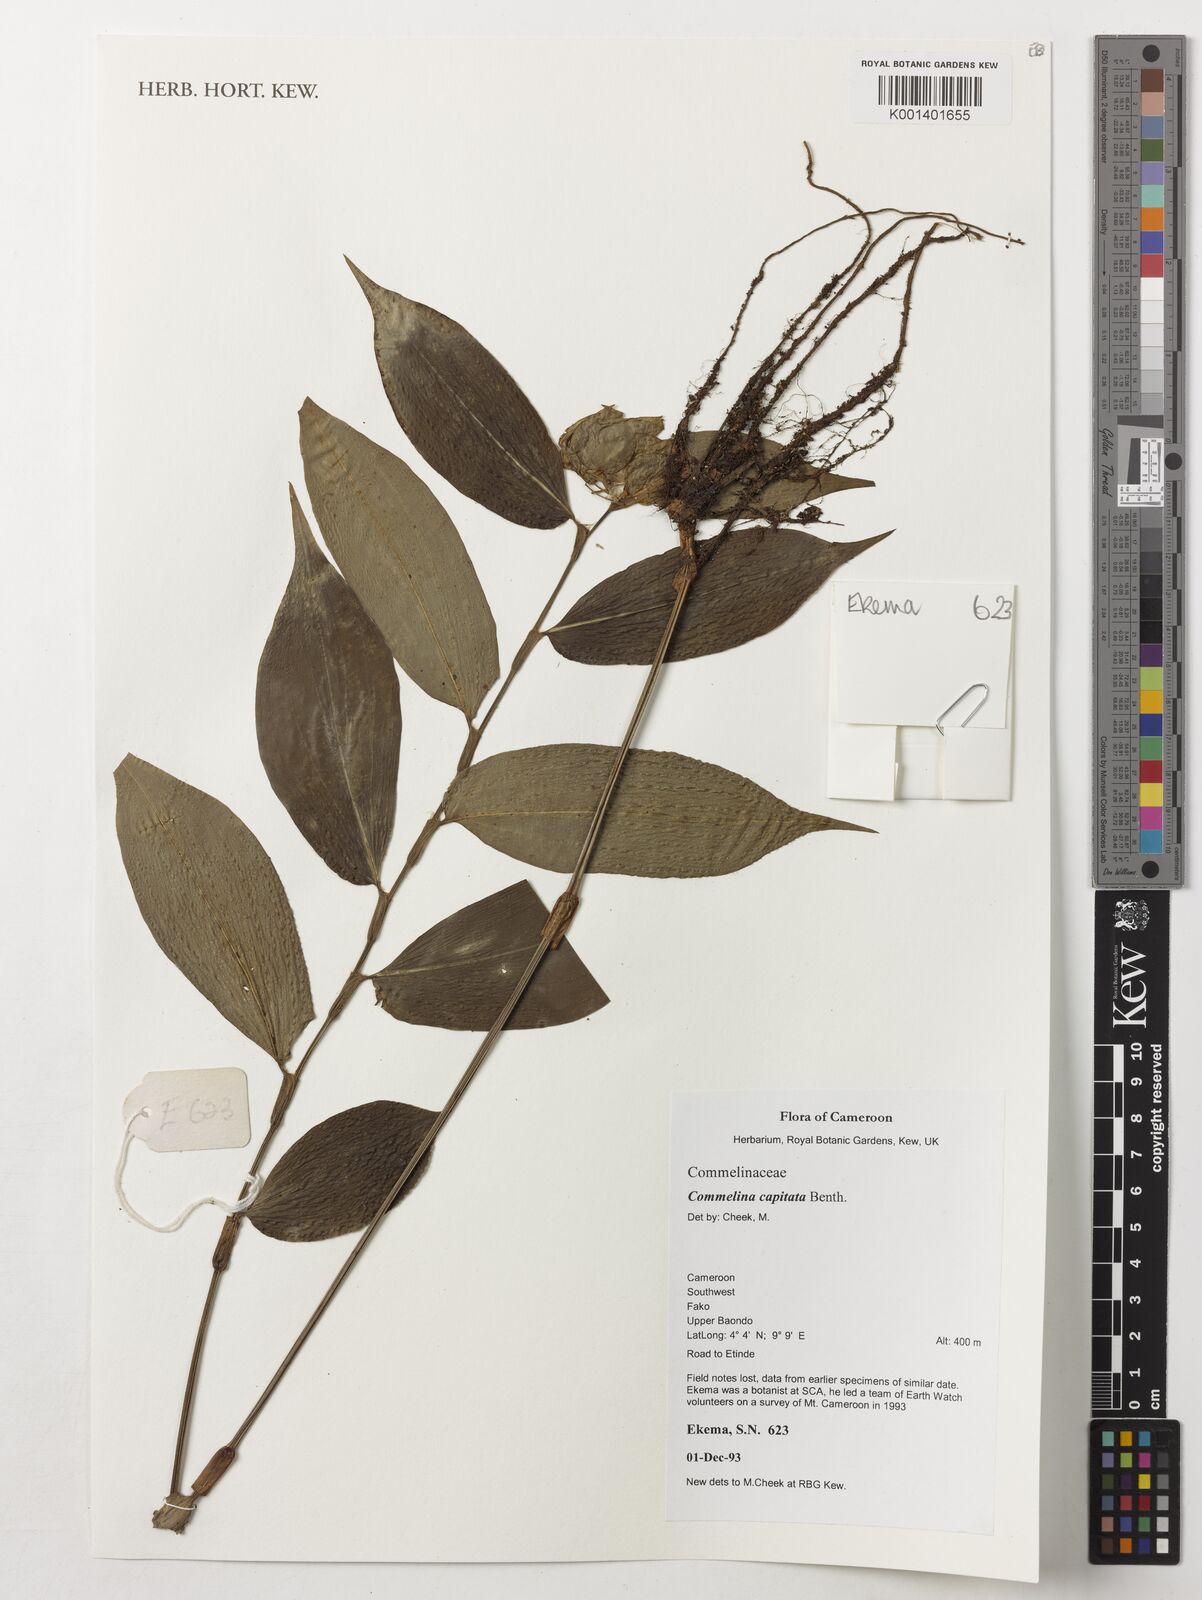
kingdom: Plantae
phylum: Tracheophyta
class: Liliopsida
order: Commelinales
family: Commelinaceae
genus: Commelina
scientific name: Commelina capitata
